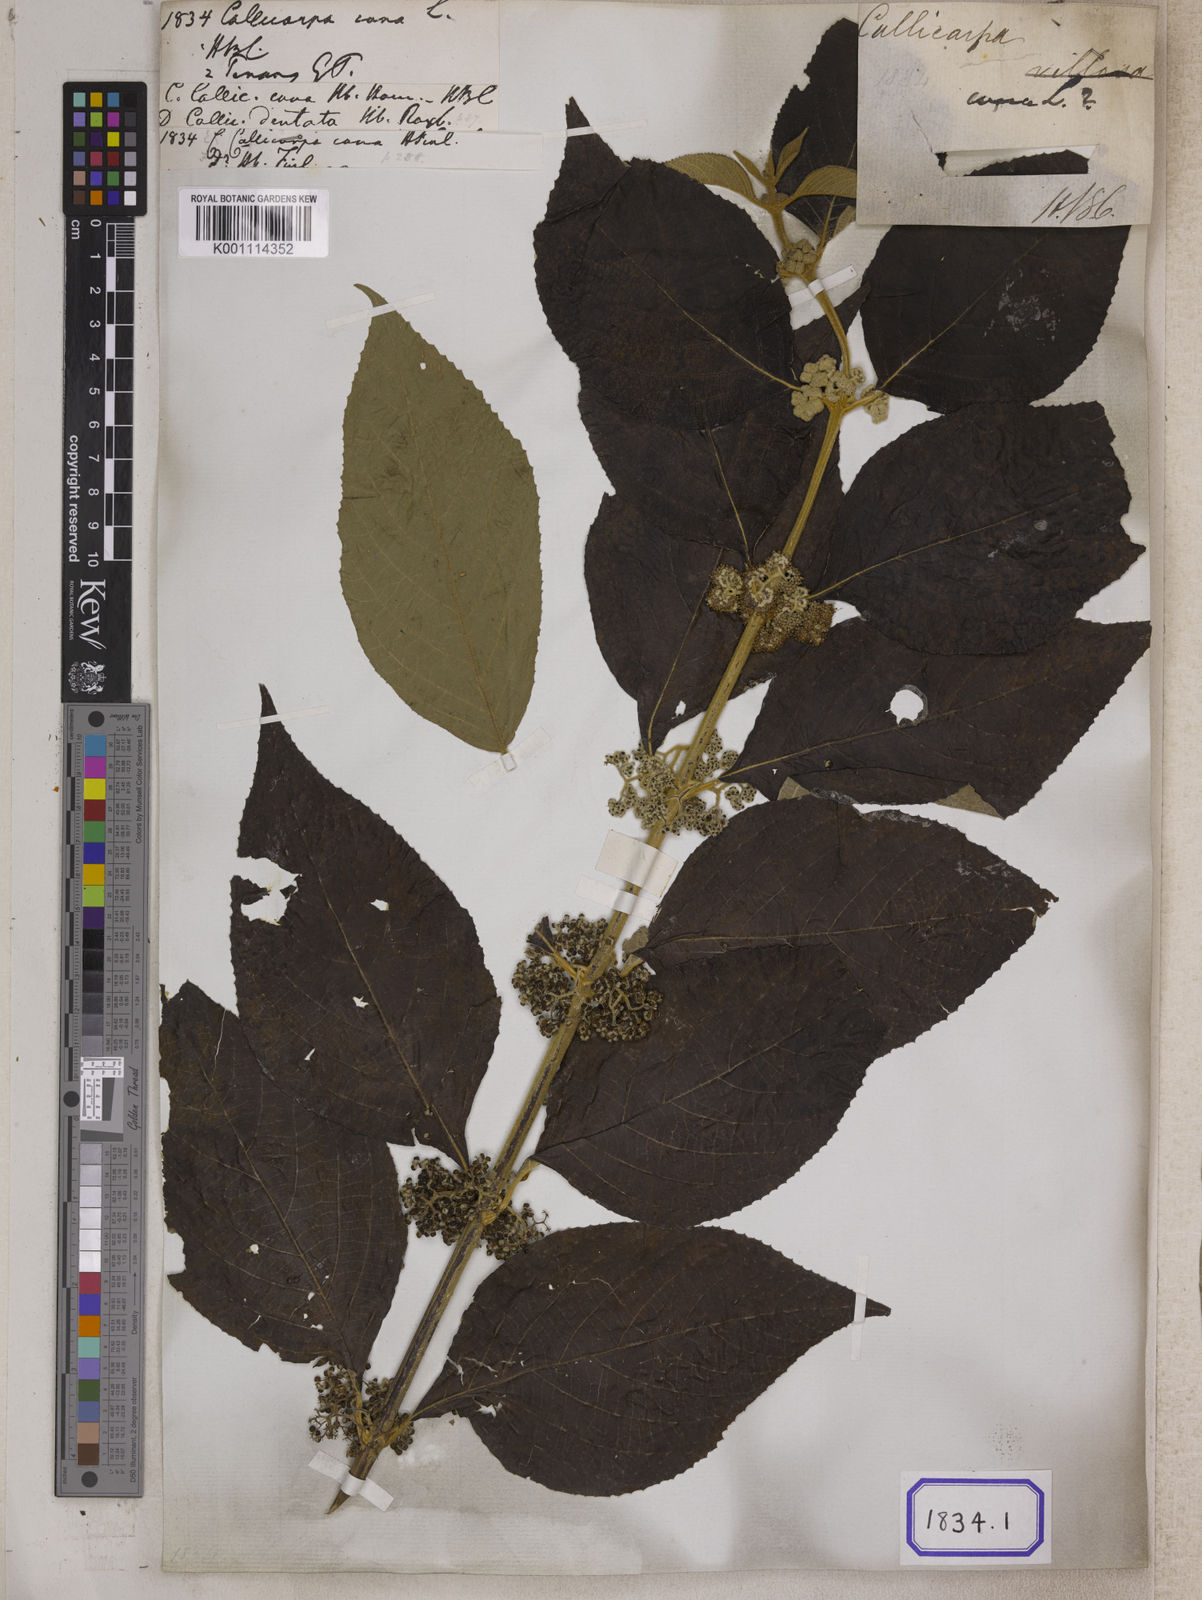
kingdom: Plantae
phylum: Tracheophyta
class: Magnoliopsida
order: Lamiales
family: Lamiaceae
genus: Callicarpa
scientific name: Callicarpa candicans
